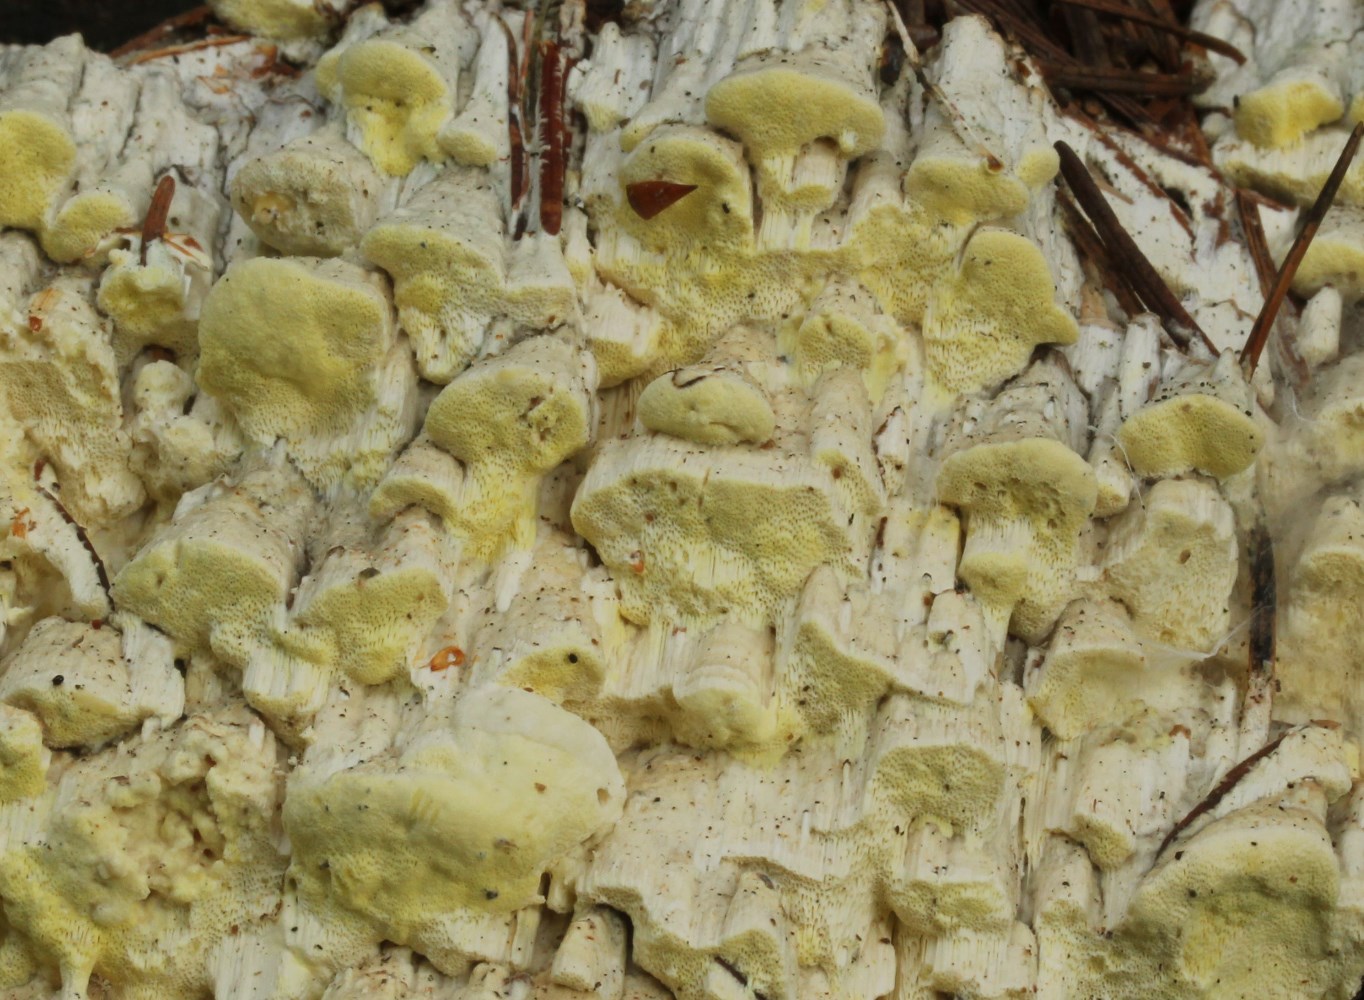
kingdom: Fungi
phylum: Basidiomycota
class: Agaricomycetes
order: Polyporales
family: Fomitopsidaceae
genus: Daedalea
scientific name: Daedalea xantha
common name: gul sejporesvamp
